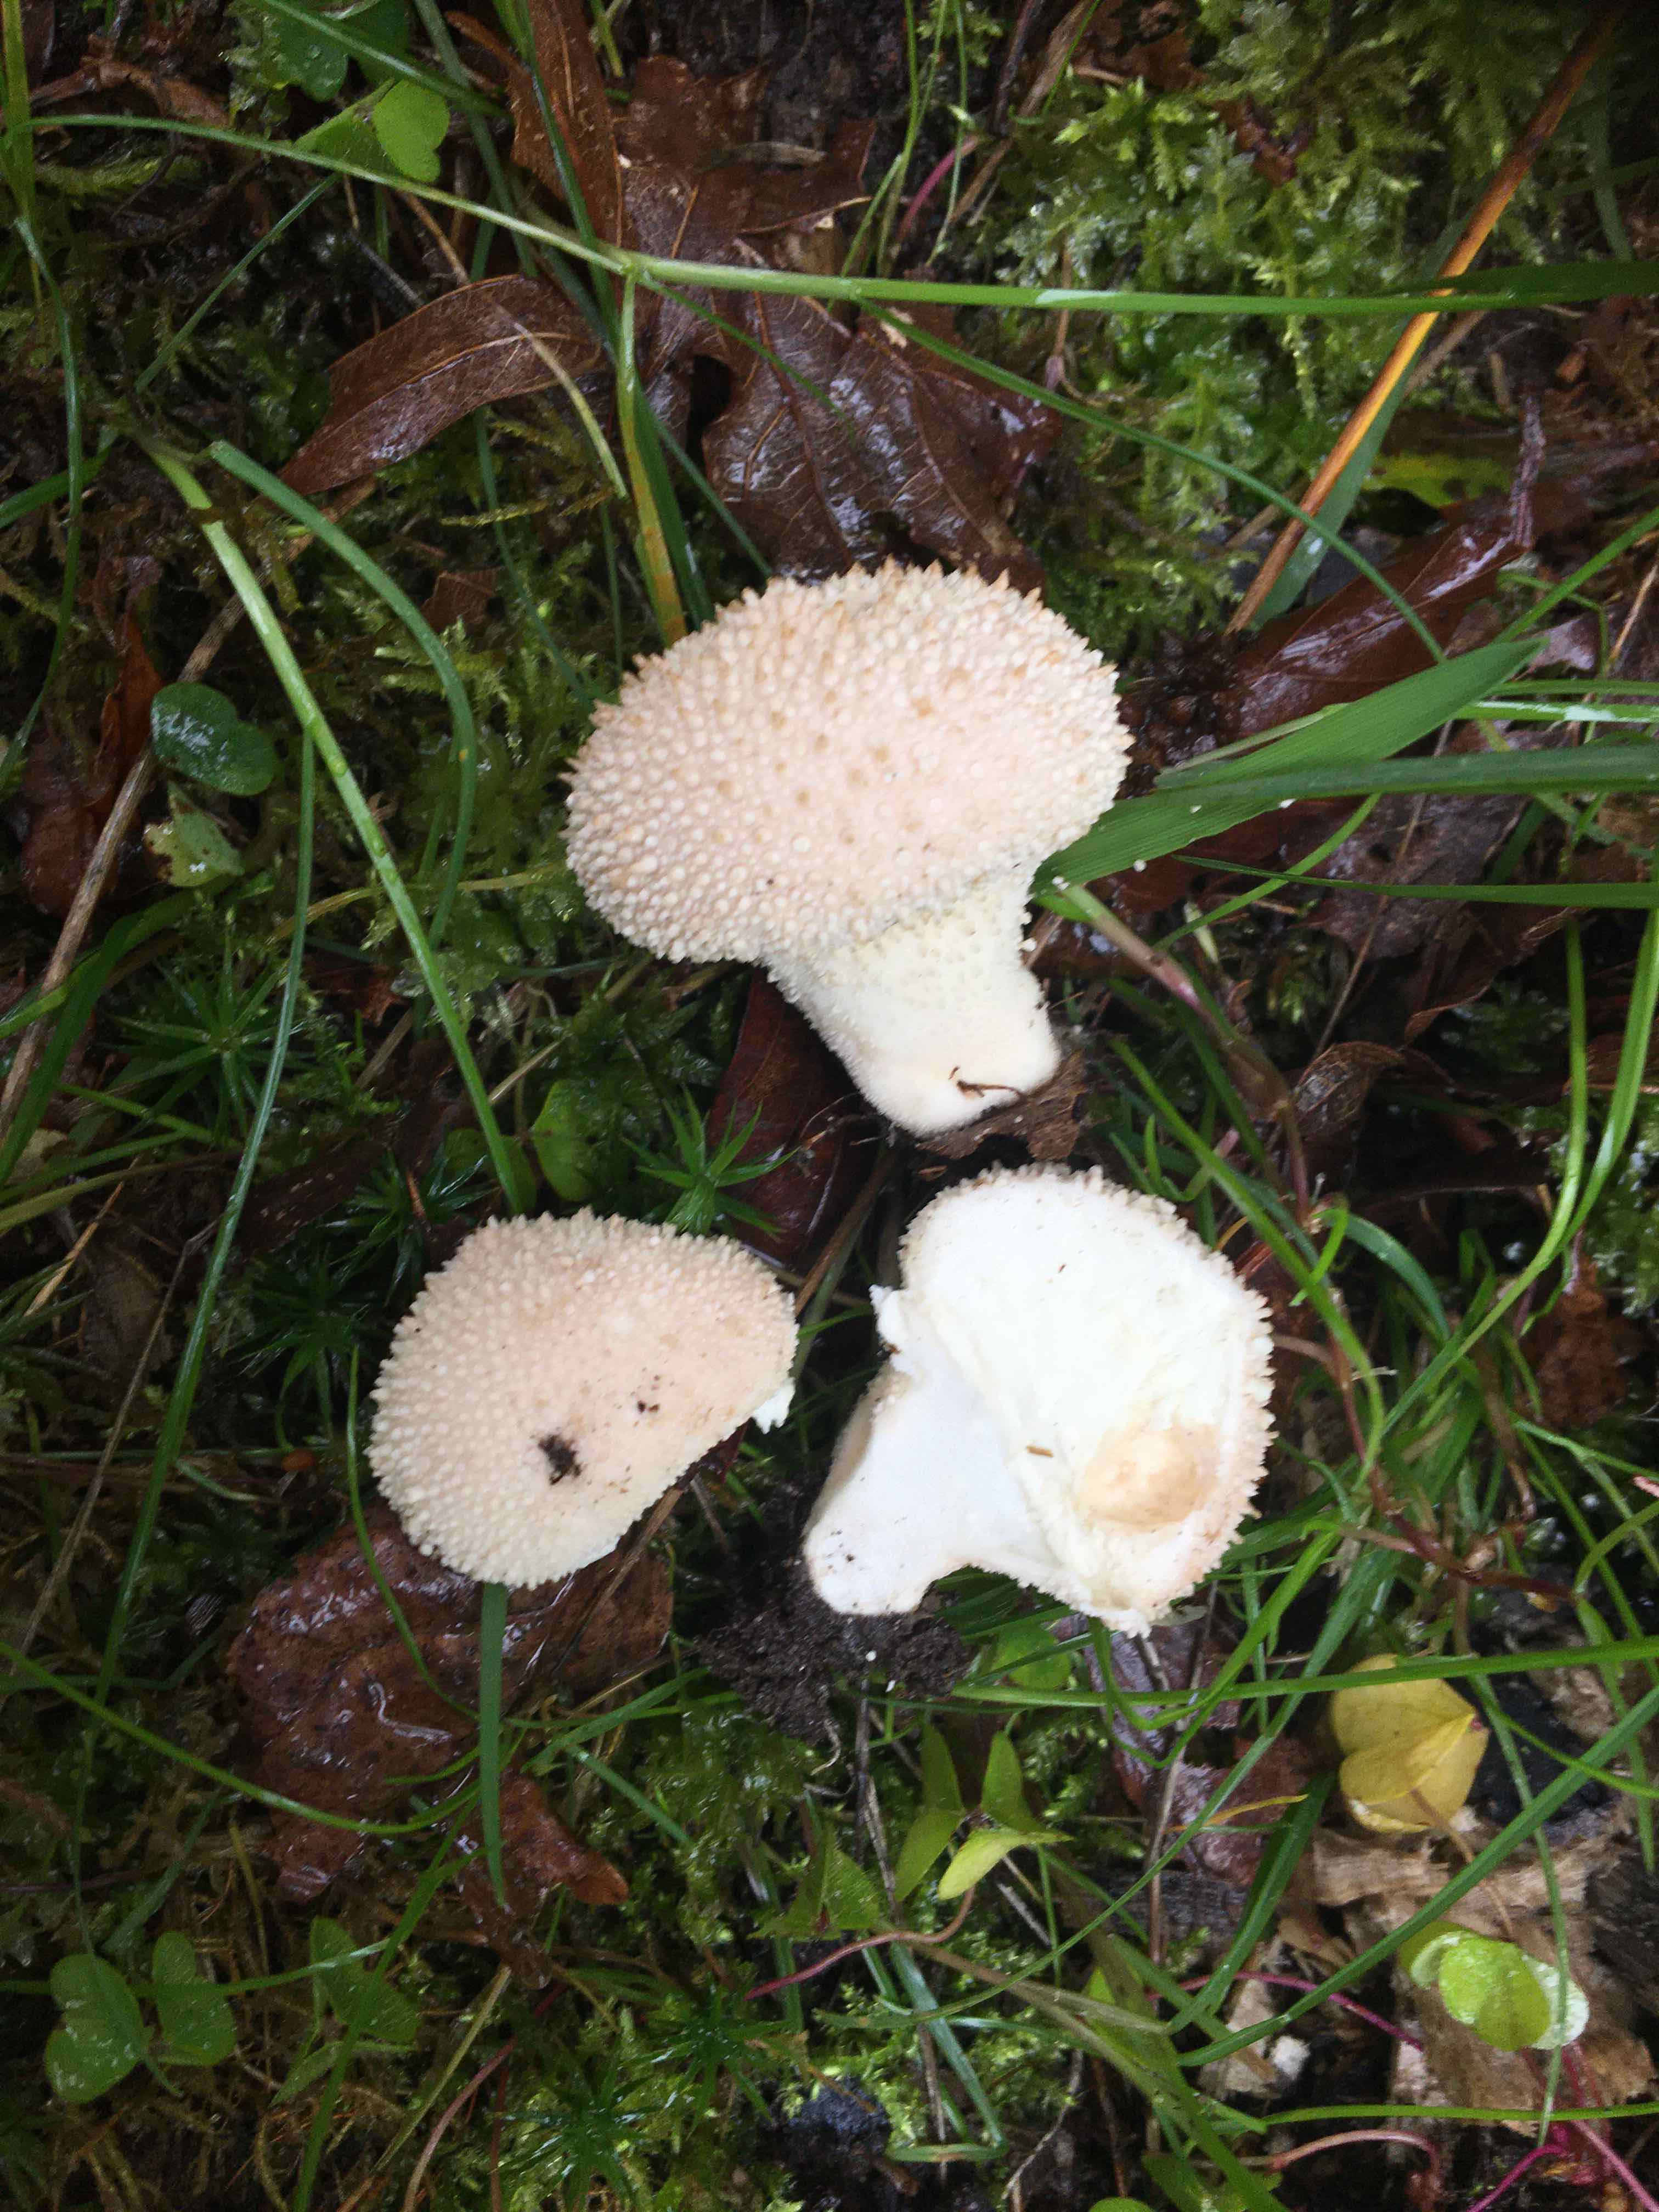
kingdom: Fungi
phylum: Basidiomycota
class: Agaricomycetes
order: Agaricales
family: Lycoperdaceae
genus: Lycoperdon
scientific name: Lycoperdon perlatum
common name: krystal-støvbold
